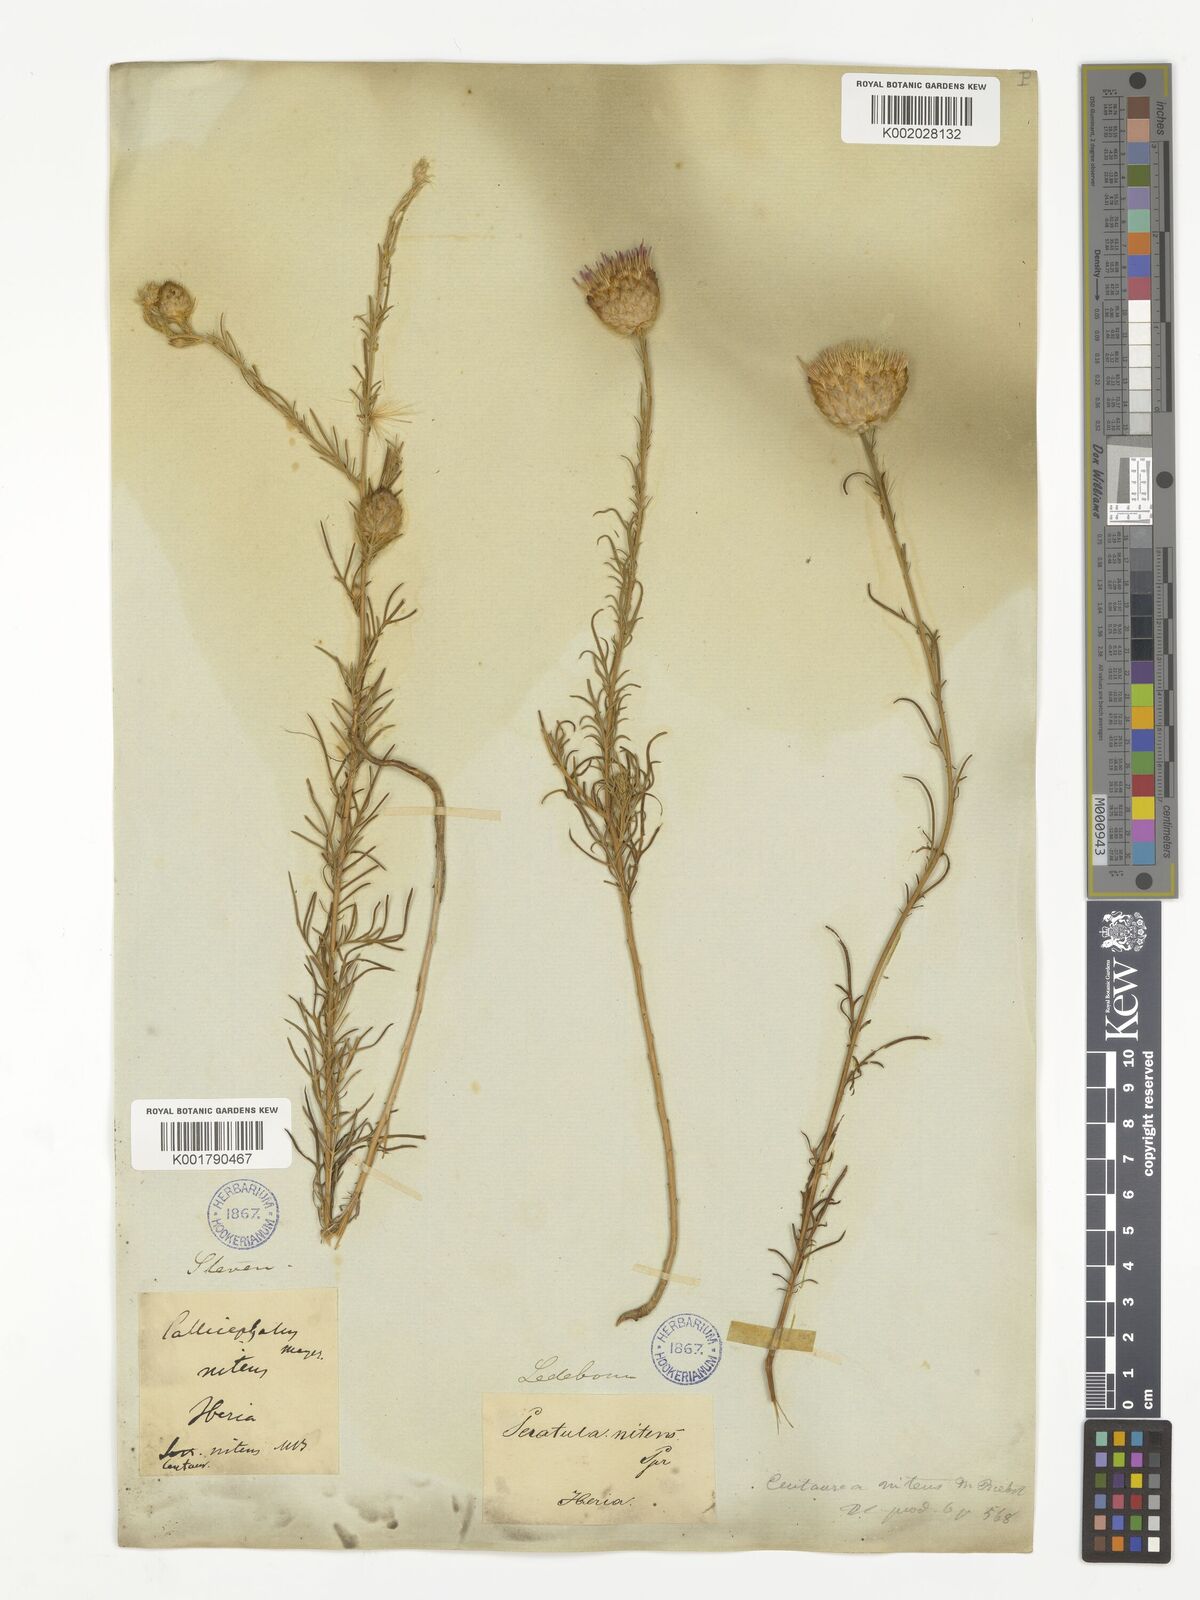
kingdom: Plantae
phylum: Tracheophyta
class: Magnoliopsida
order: Asterales
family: Asteraceae
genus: Callicephalus
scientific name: Callicephalus nitens
